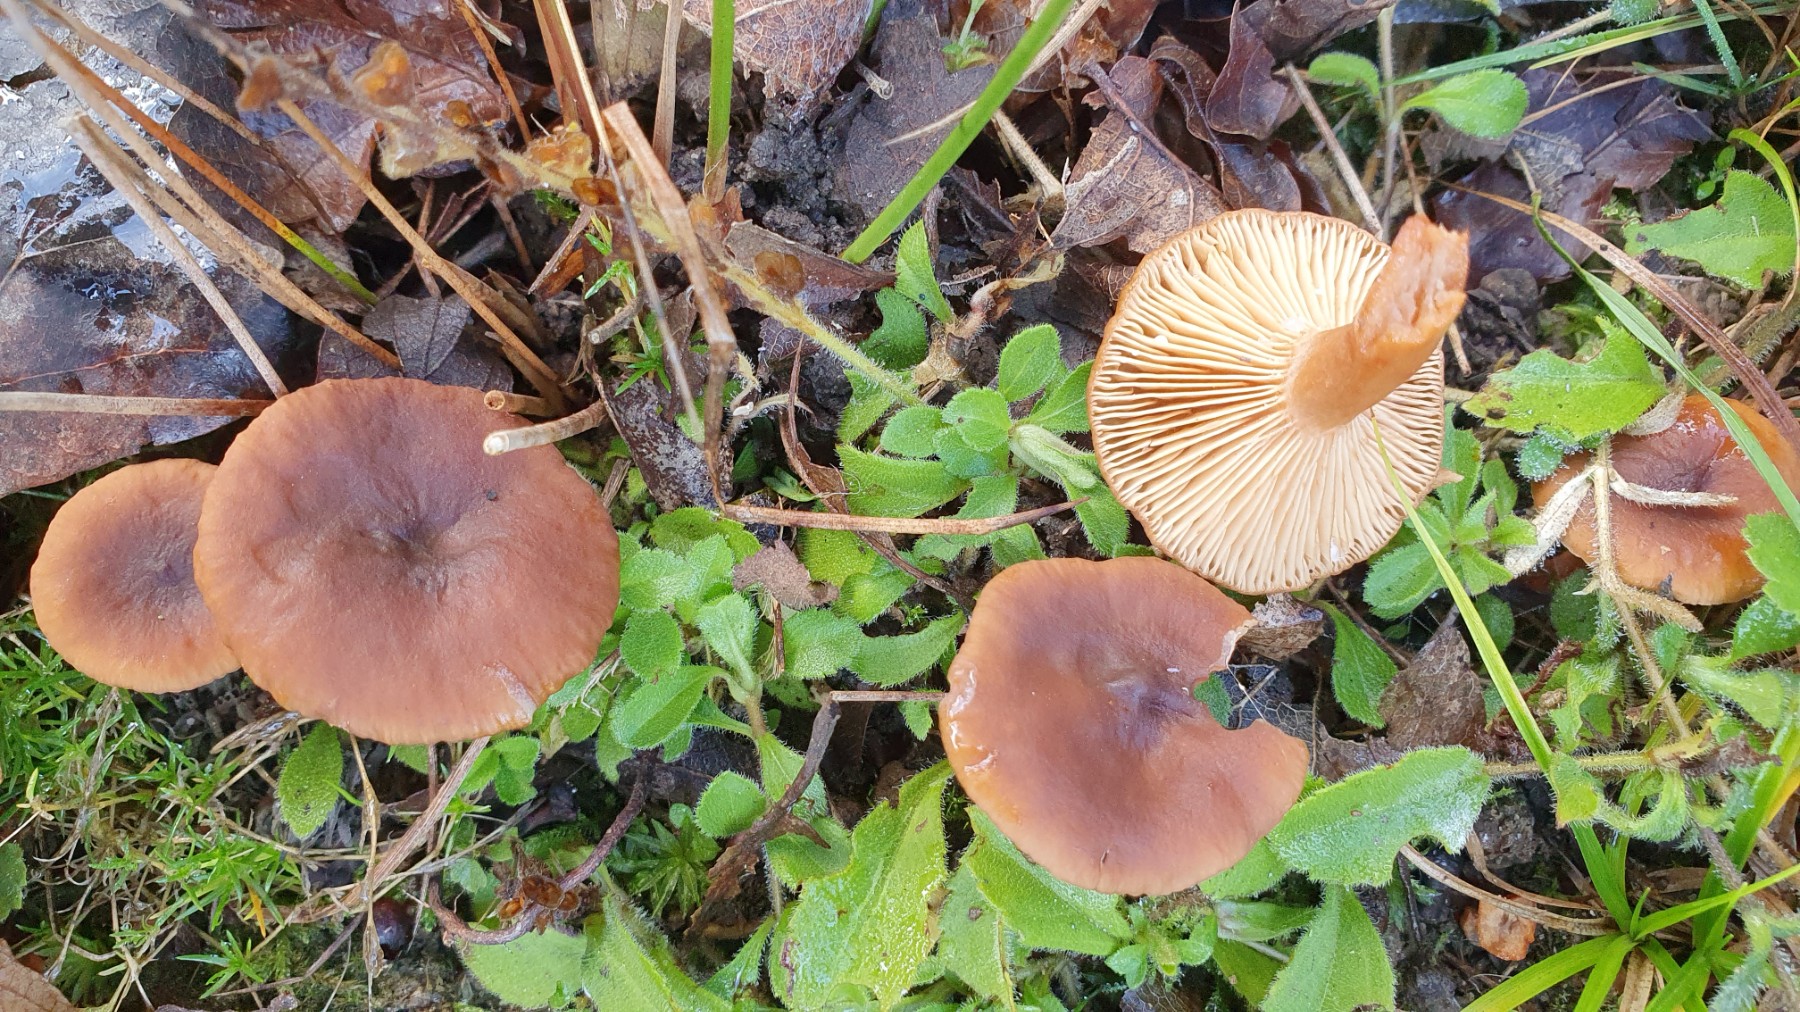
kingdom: Fungi
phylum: Basidiomycota
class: Agaricomycetes
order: Russulales
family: Russulaceae
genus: Lactarius
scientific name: Lactarius serifluus
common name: tæge-mælkehat
